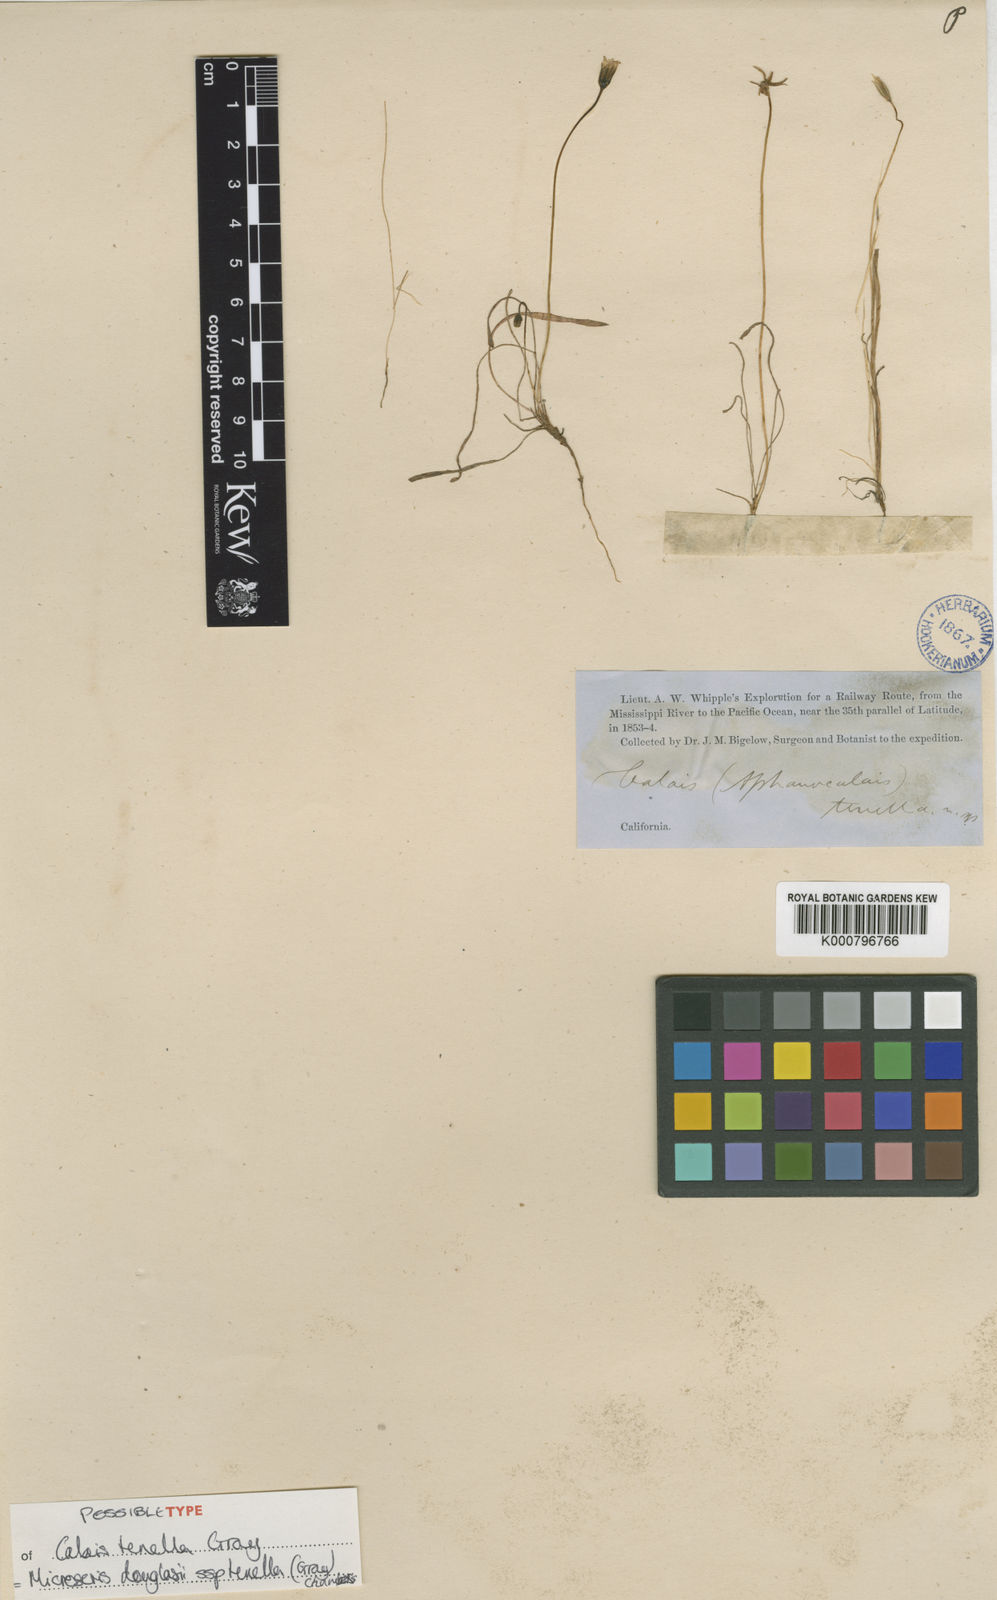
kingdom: Plantae
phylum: Tracheophyta
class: Magnoliopsida
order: Asterales
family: Asteraceae
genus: Microseris
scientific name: Microseris douglasii
